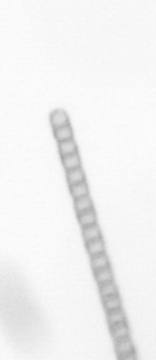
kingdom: Chromista
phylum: Ochrophyta
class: Bacillariophyceae
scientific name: Bacillariophyceae
